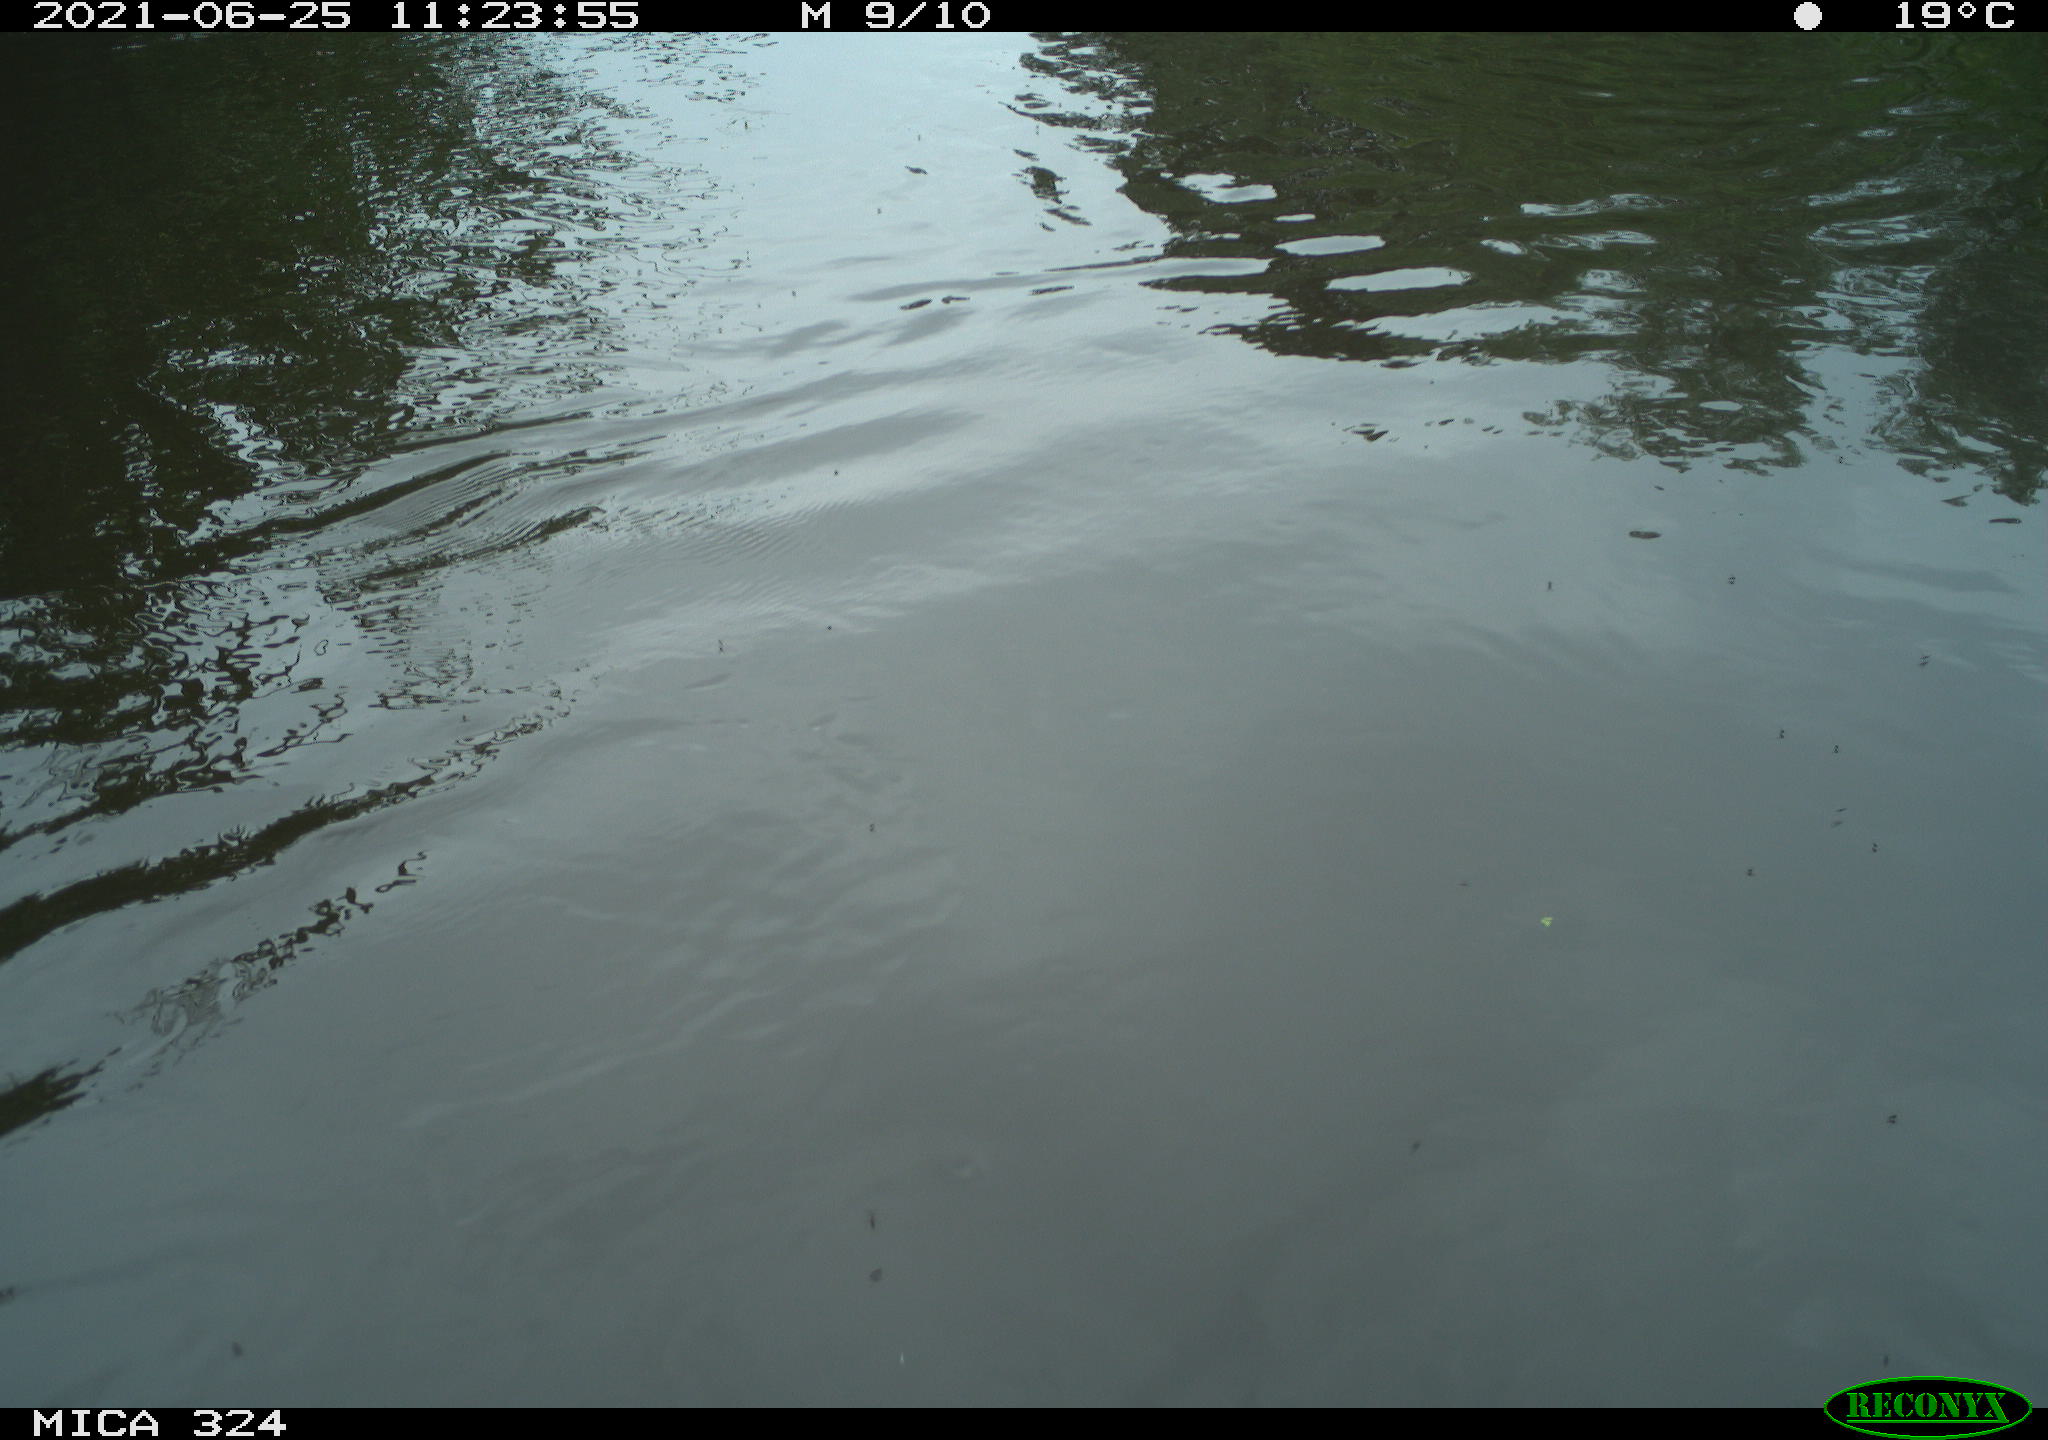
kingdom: Animalia
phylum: Chordata
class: Aves
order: Gruiformes
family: Rallidae
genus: Gallinula
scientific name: Gallinula chloropus
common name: Common moorhen
